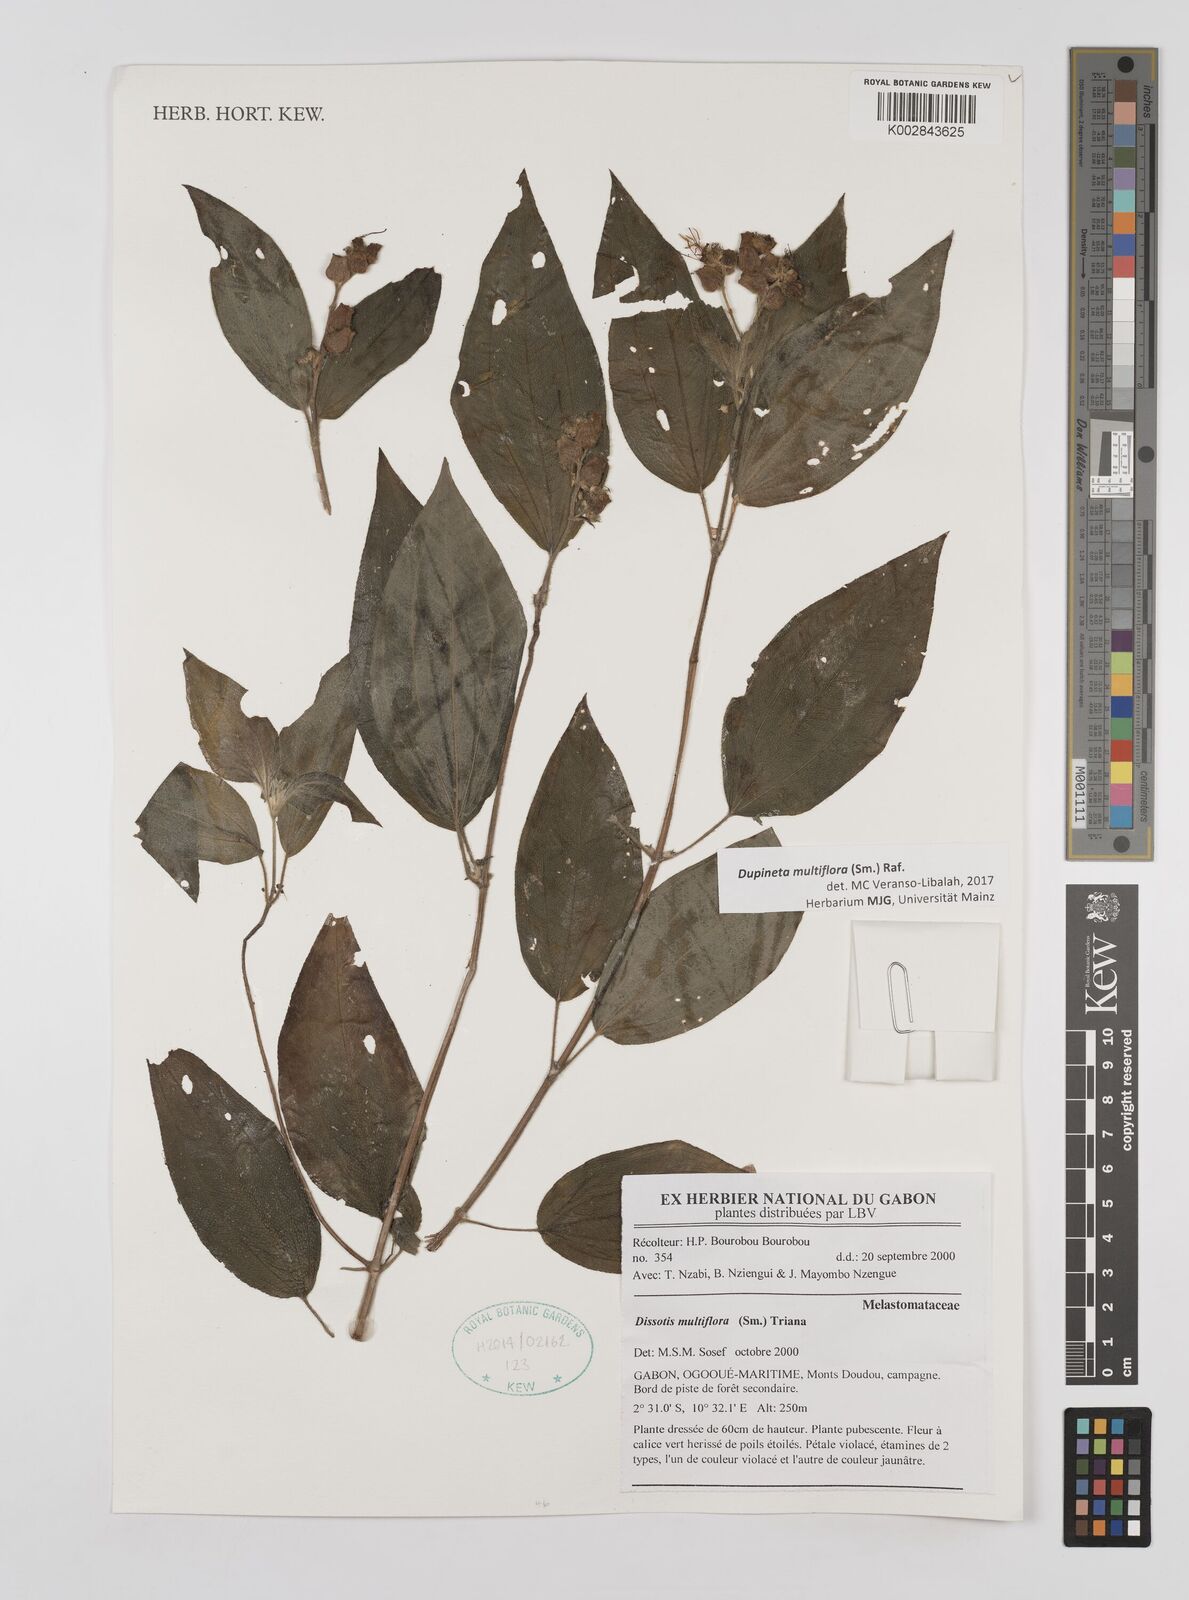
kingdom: Plantae
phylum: Tracheophyta
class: Magnoliopsida
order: Myrtales
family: Melastomataceae
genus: Dupineta
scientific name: Dupineta multiflora
